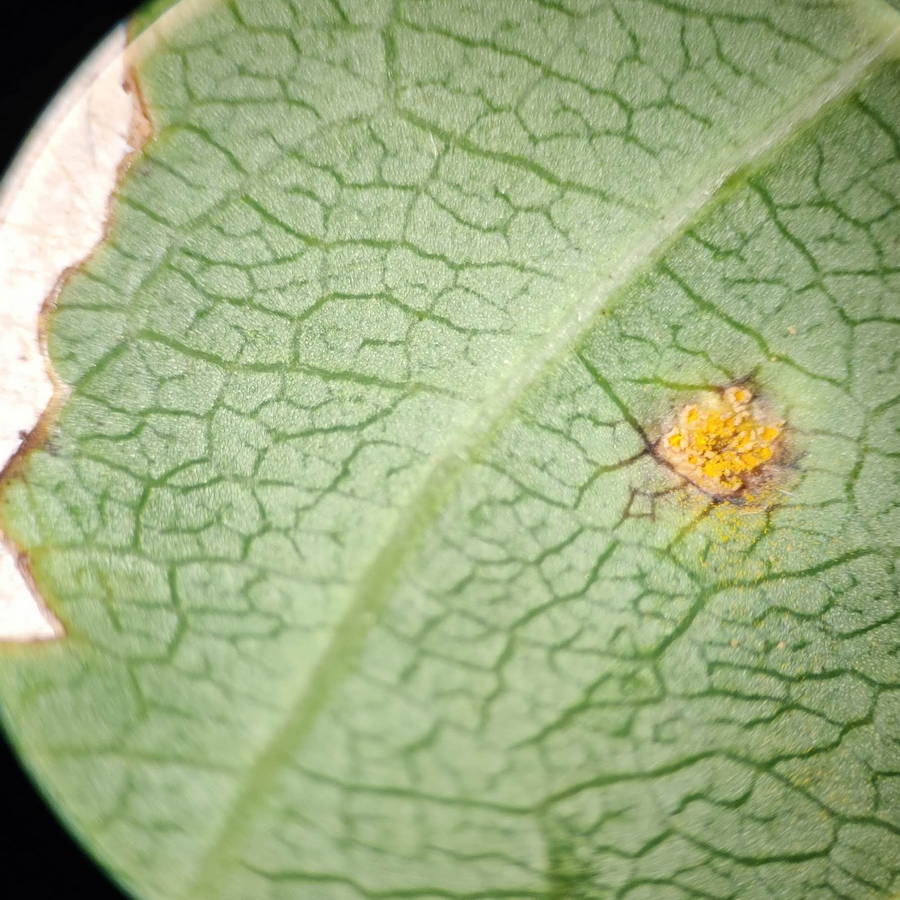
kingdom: Fungi
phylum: Basidiomycota
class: Pucciniomycetes
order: Pucciniales
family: Pucciniaceae
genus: Puccinia
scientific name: Puccinia coronata
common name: Crown rust
